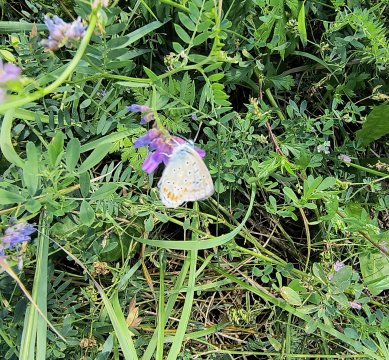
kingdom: Animalia
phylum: Arthropoda
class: Insecta
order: Lepidoptera
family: Lycaenidae
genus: Polyommatus
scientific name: Polyommatus icarus
